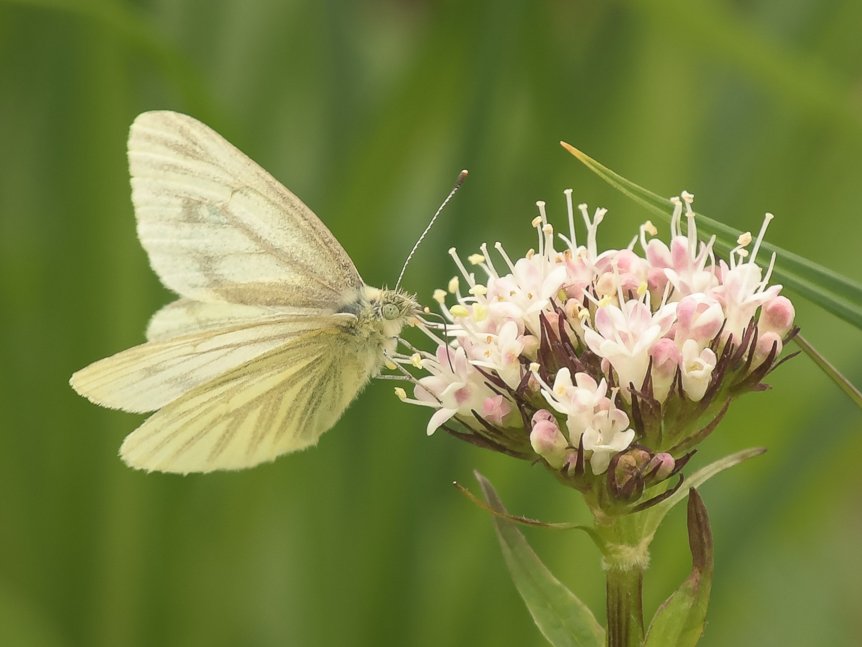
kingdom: Animalia
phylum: Arthropoda
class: Insecta
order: Lepidoptera
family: Pieridae
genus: Pieris
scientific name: Pieris marginalis
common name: Margined White
